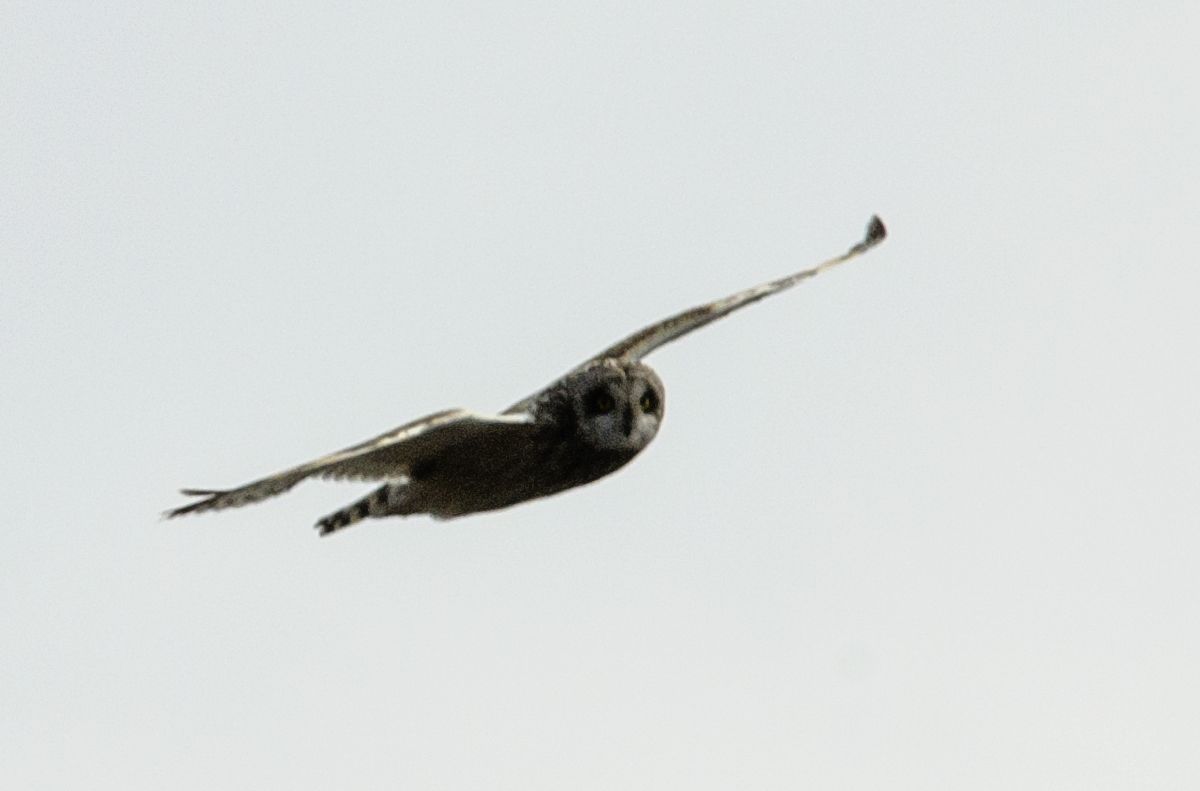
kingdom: Animalia
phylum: Chordata
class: Aves
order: Strigiformes
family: Strigidae
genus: Asio
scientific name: Asio flammeus
